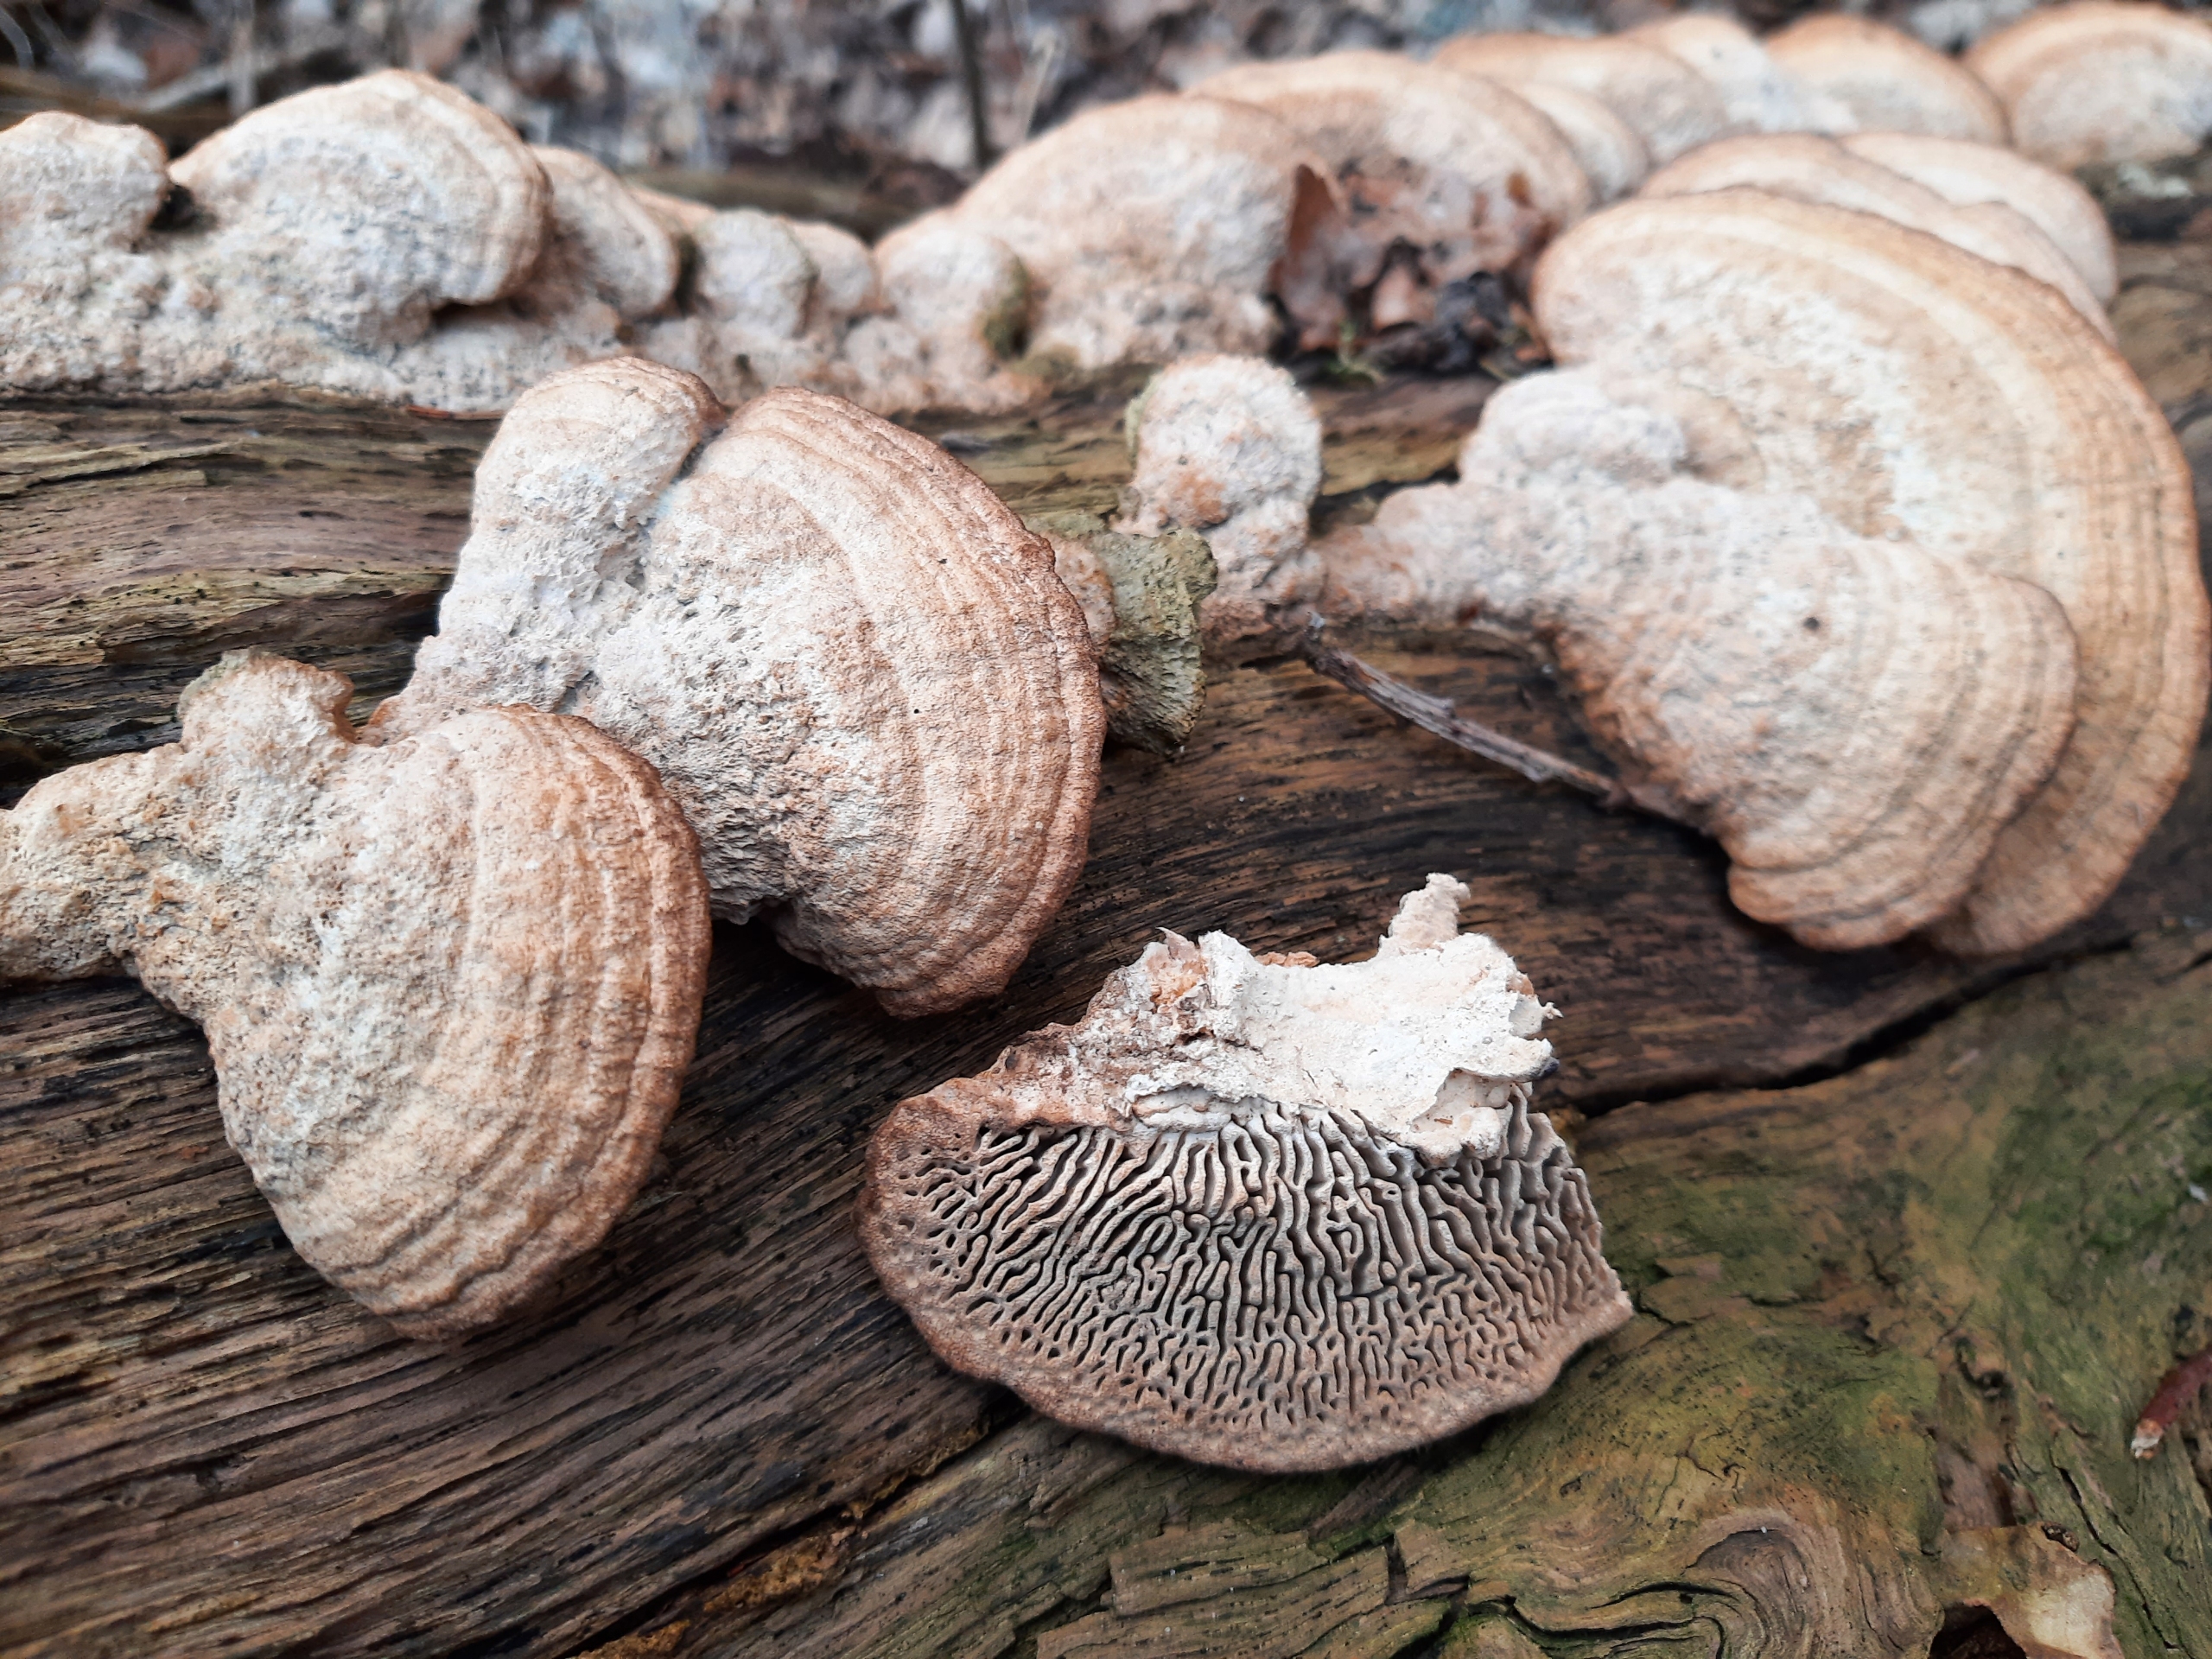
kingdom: Fungi
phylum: Basidiomycota
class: Agaricomycetes
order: Polyporales
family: Fomitopsidaceae
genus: Daedalea
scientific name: Daedalea quercina
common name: Ege-labyrintsvamp
